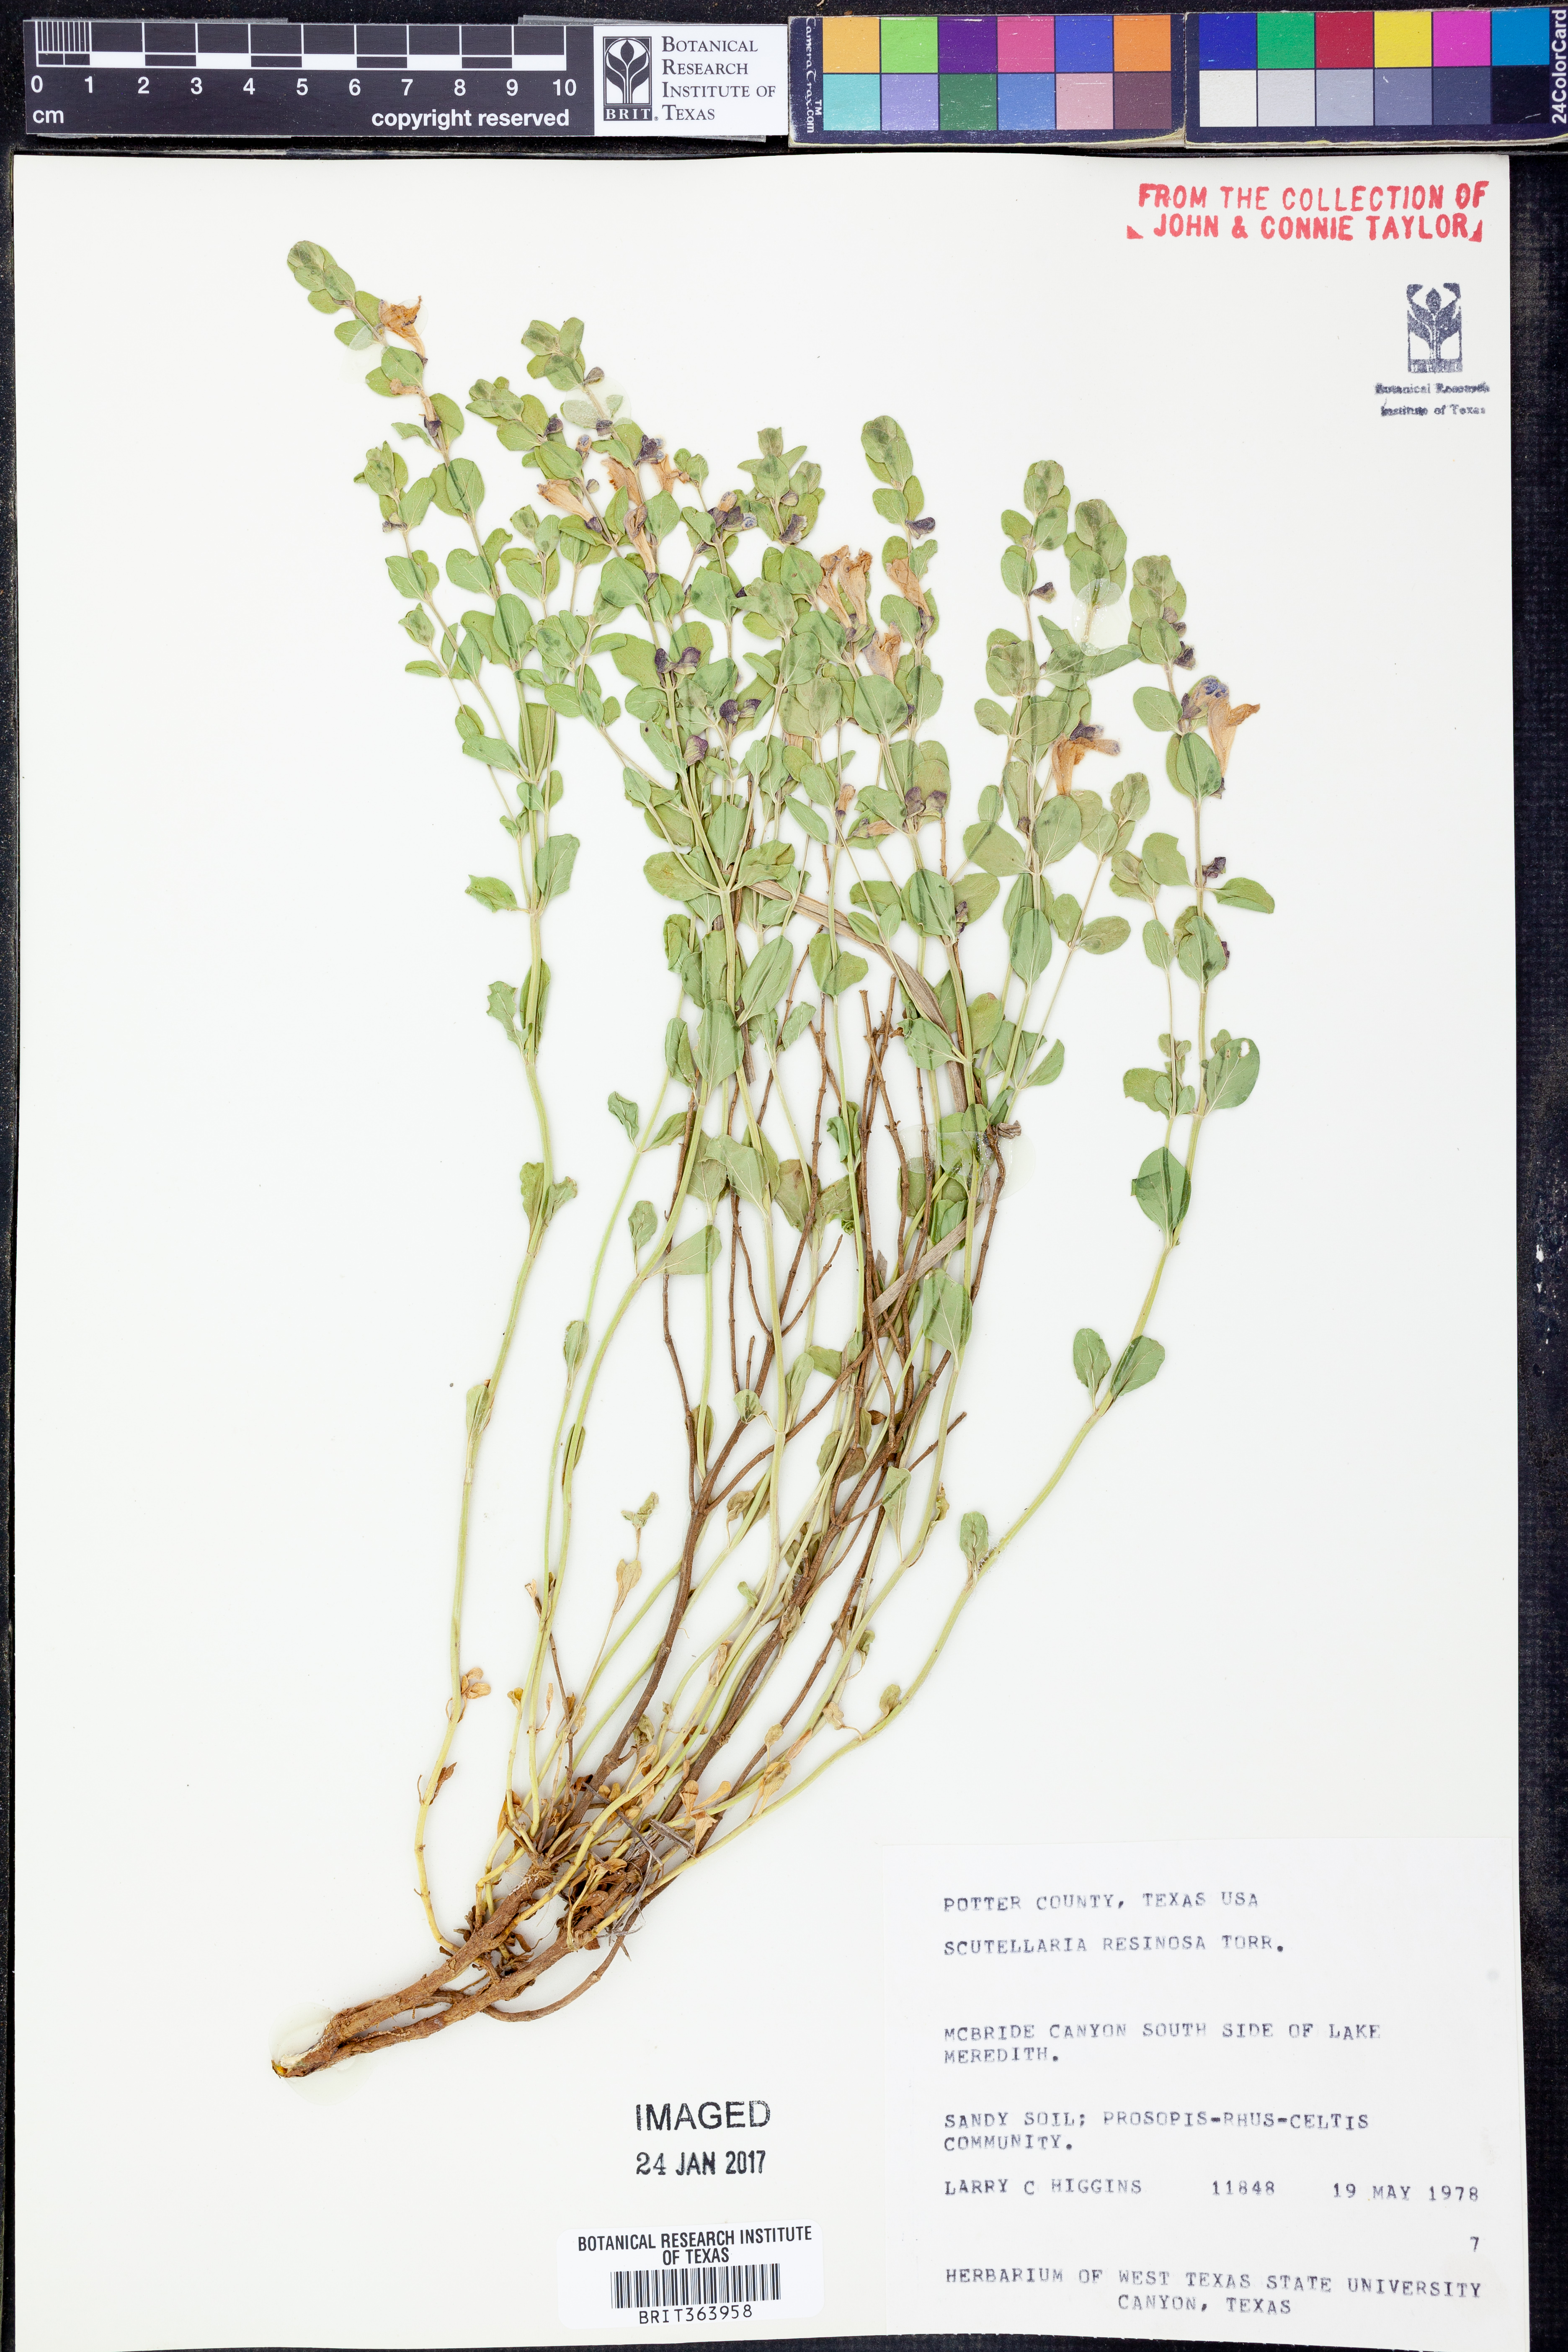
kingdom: Plantae
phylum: Tracheophyta
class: Magnoliopsida
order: Lamiales
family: Lamiaceae
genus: Scutellaria
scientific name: Scutellaria resinosa
